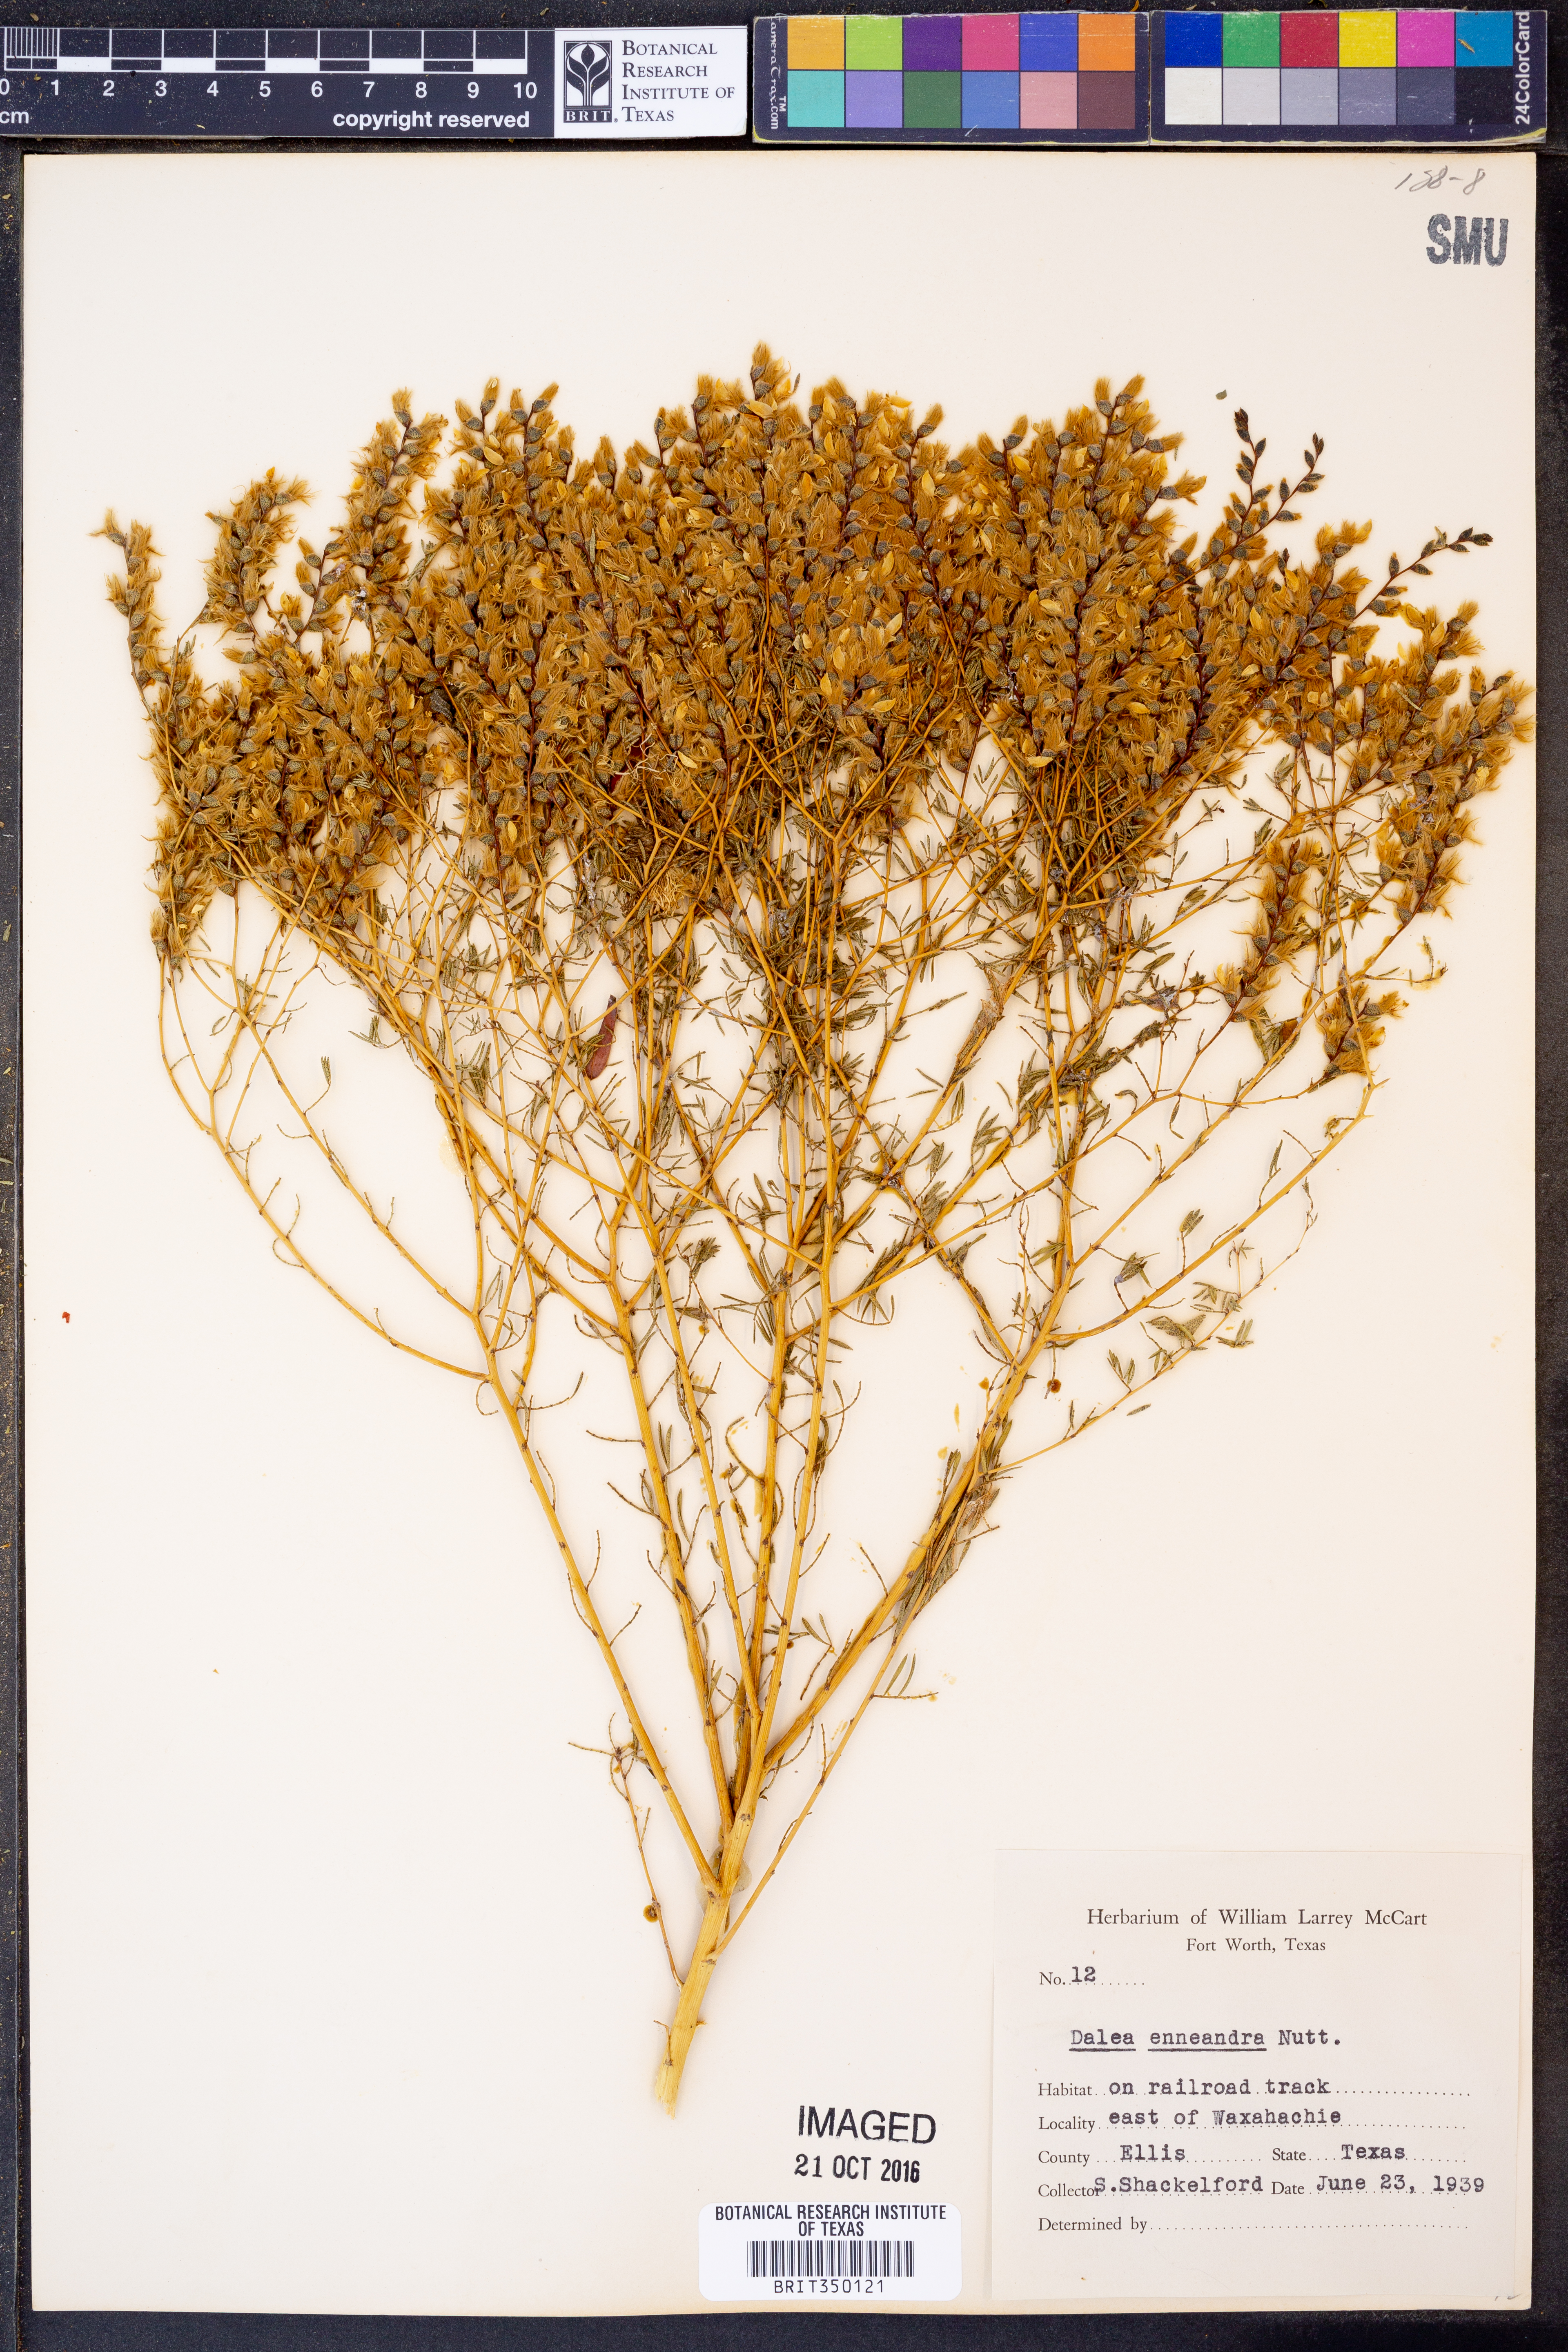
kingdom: Plantae
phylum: Tracheophyta
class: Magnoliopsida
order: Fabales
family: Fabaceae
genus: Dalea
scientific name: Dalea enneandra
